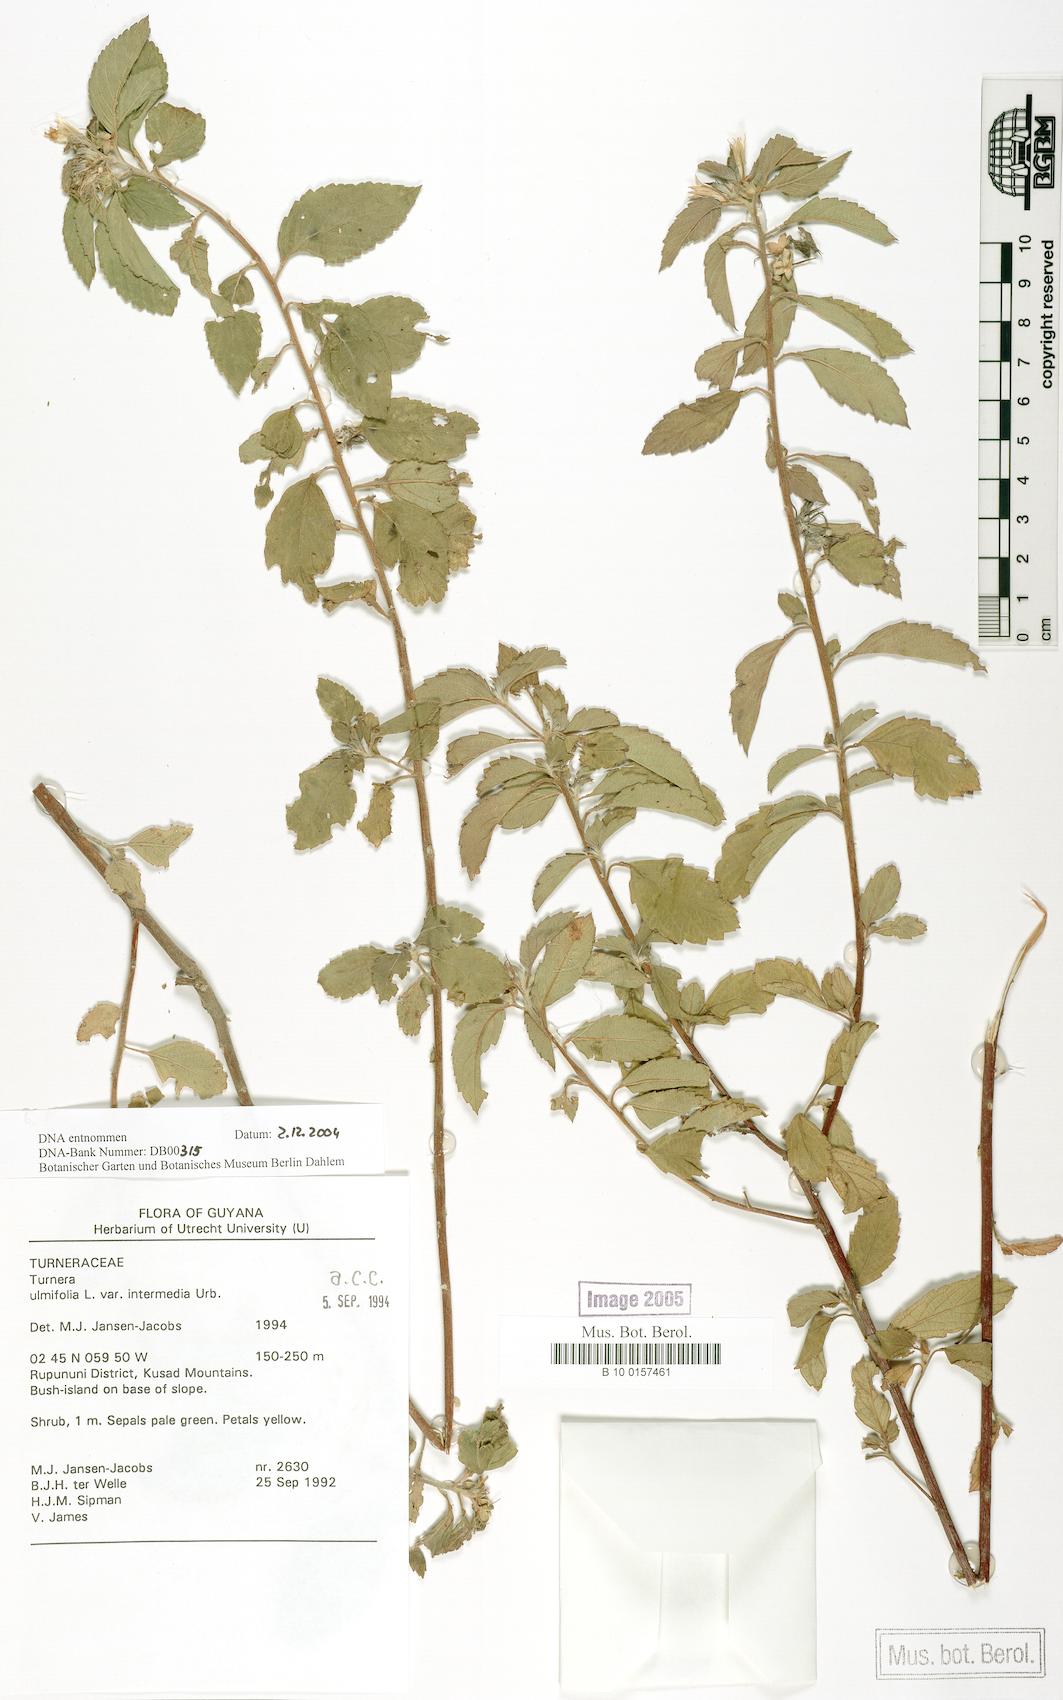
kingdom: Plantae
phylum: Tracheophyta
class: Magnoliopsida
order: Malpighiales
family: Turneraceae
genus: Turnera
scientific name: Turnera scabra
